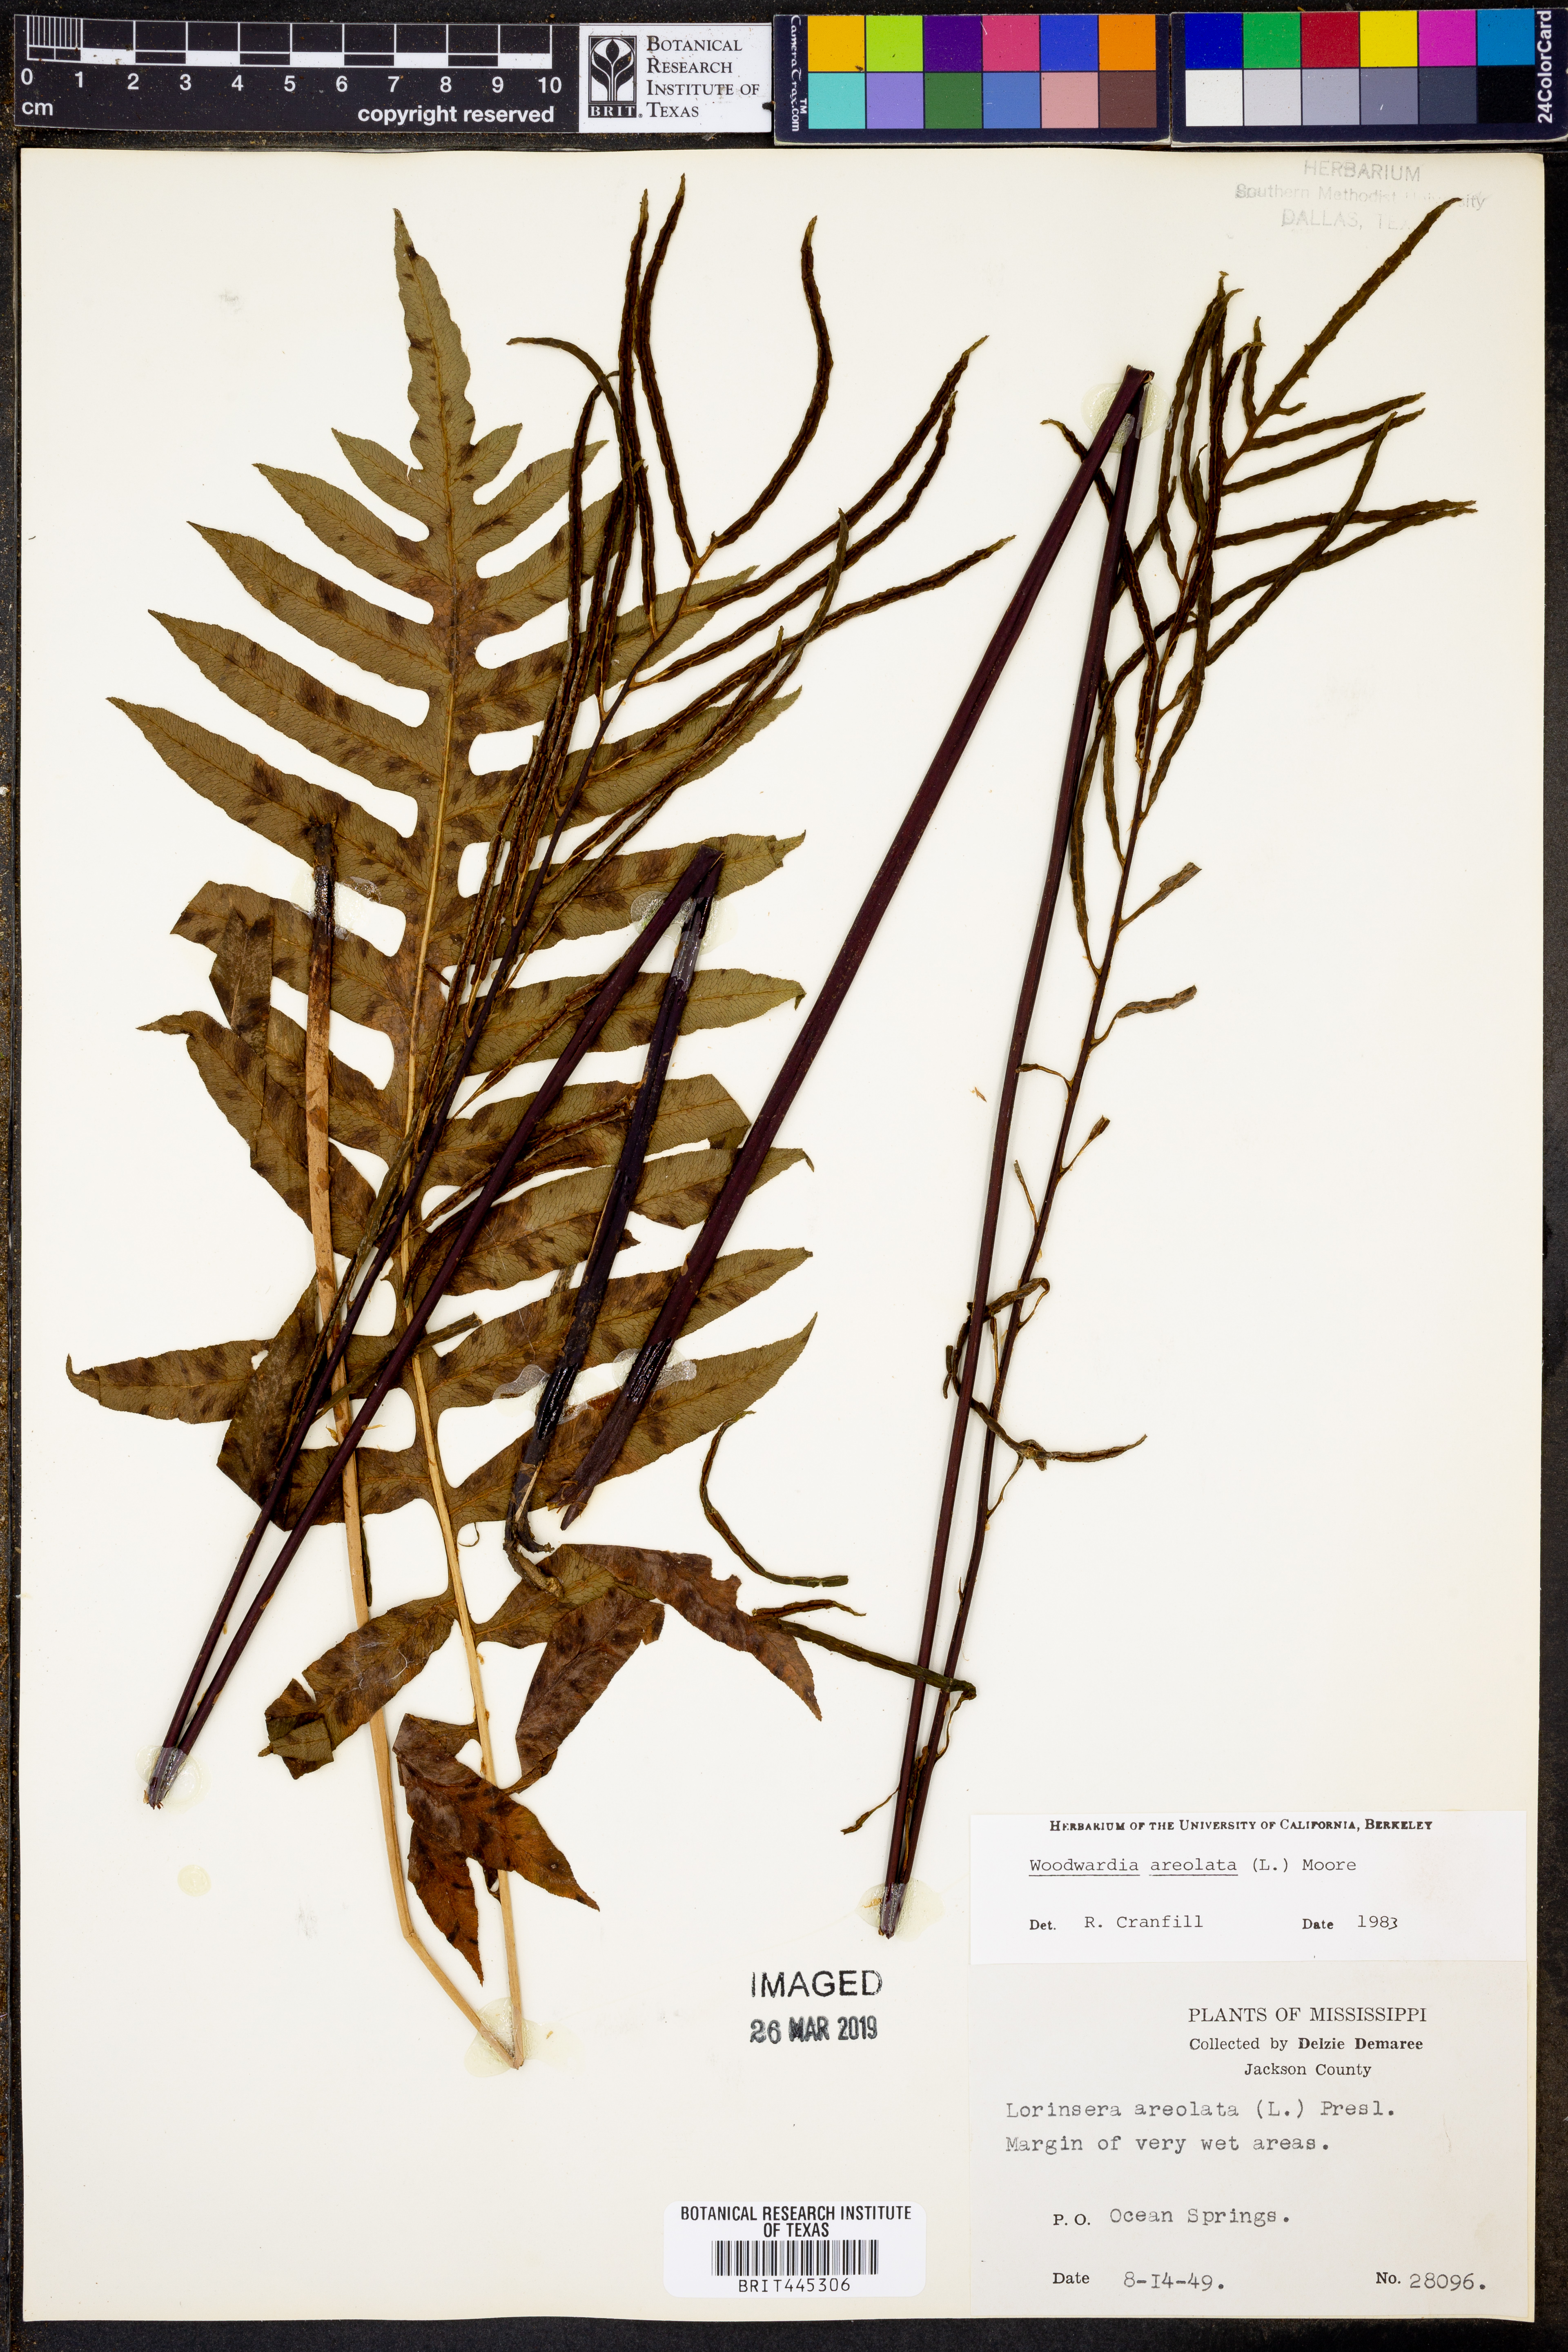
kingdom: Plantae
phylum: Tracheophyta
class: Polypodiopsida
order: Polypodiales
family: Blechnaceae
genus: Lorinseria
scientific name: Lorinseria areolata
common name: Dwarf chain fern
